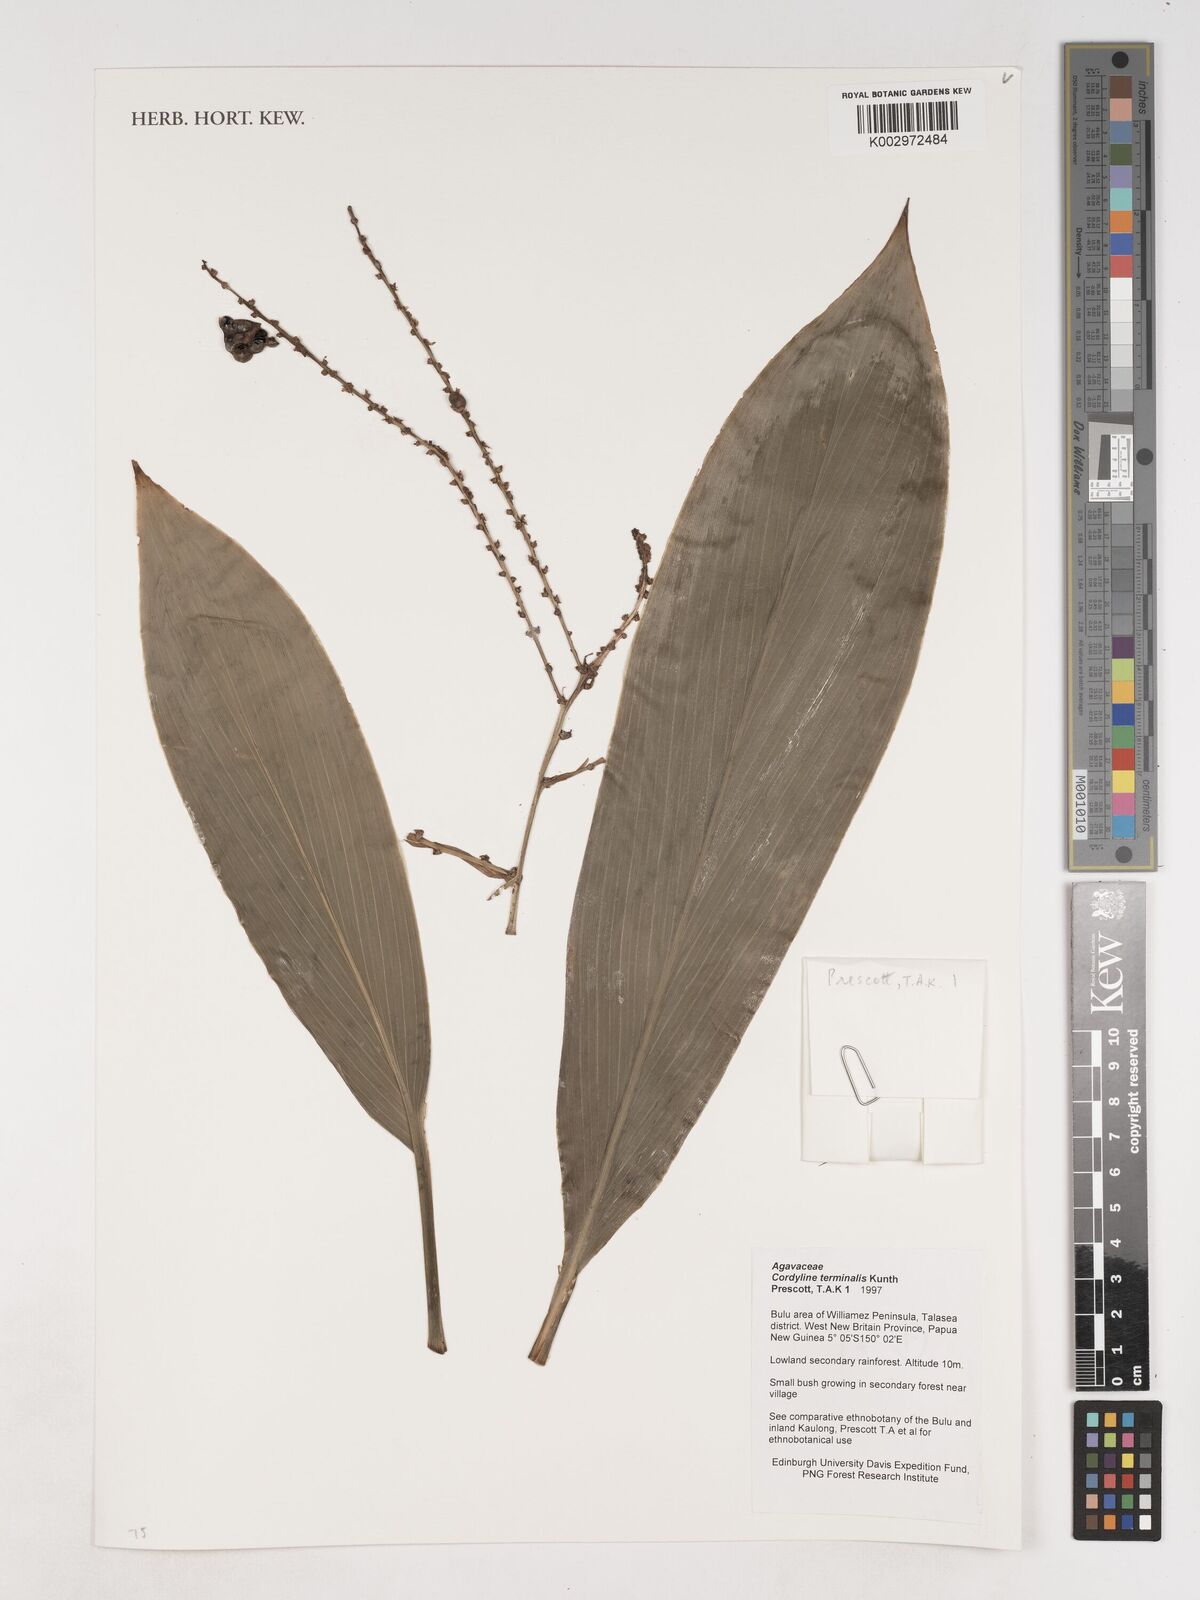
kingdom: Plantae
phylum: Tracheophyta
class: Liliopsida
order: Asparagales
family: Asparagaceae
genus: Cordyline
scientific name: Cordyline fruticosa
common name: Good-luck-plant
